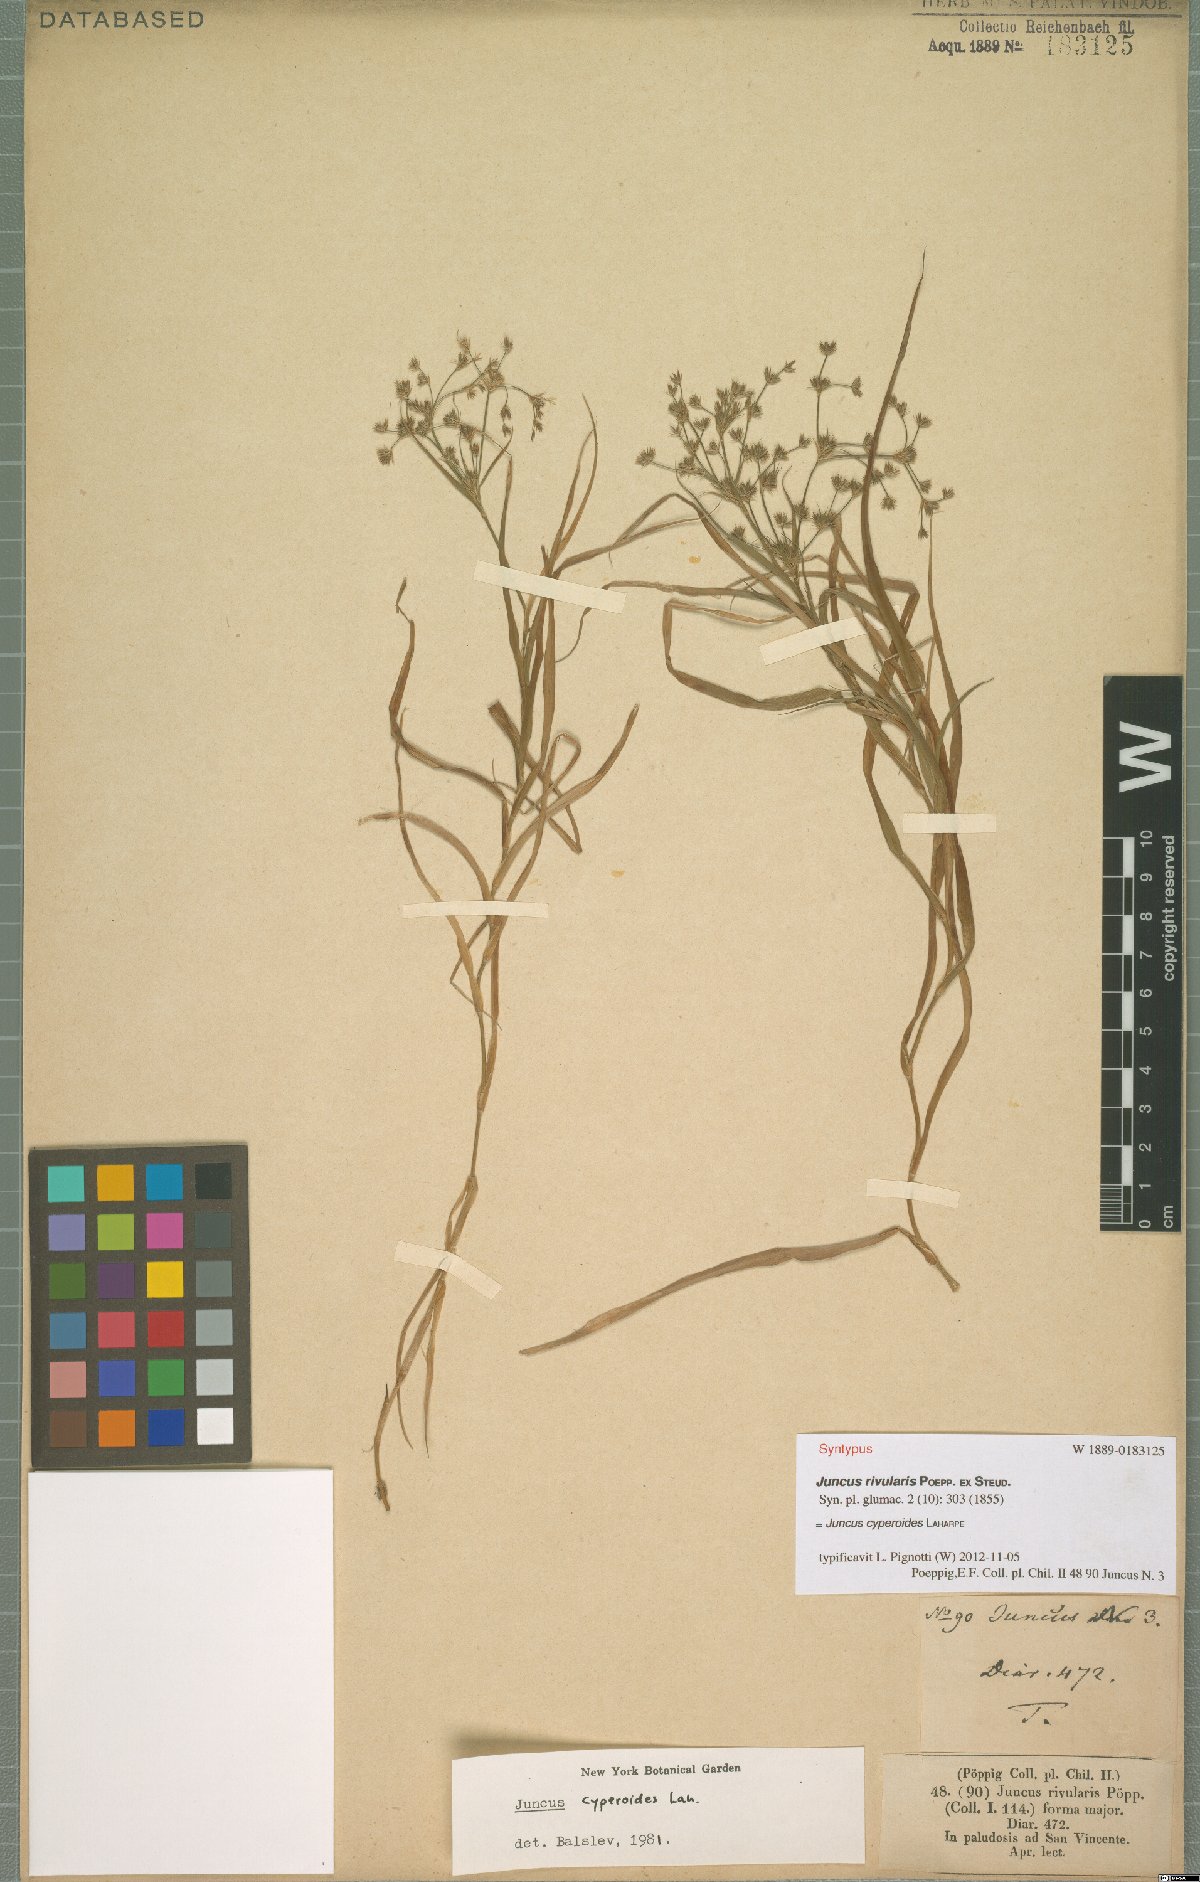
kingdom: Plantae
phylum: Tracheophyta
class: Liliopsida
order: Poales
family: Juncaceae
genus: Juncus
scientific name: Juncus cyperoides
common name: Forbestown rush
